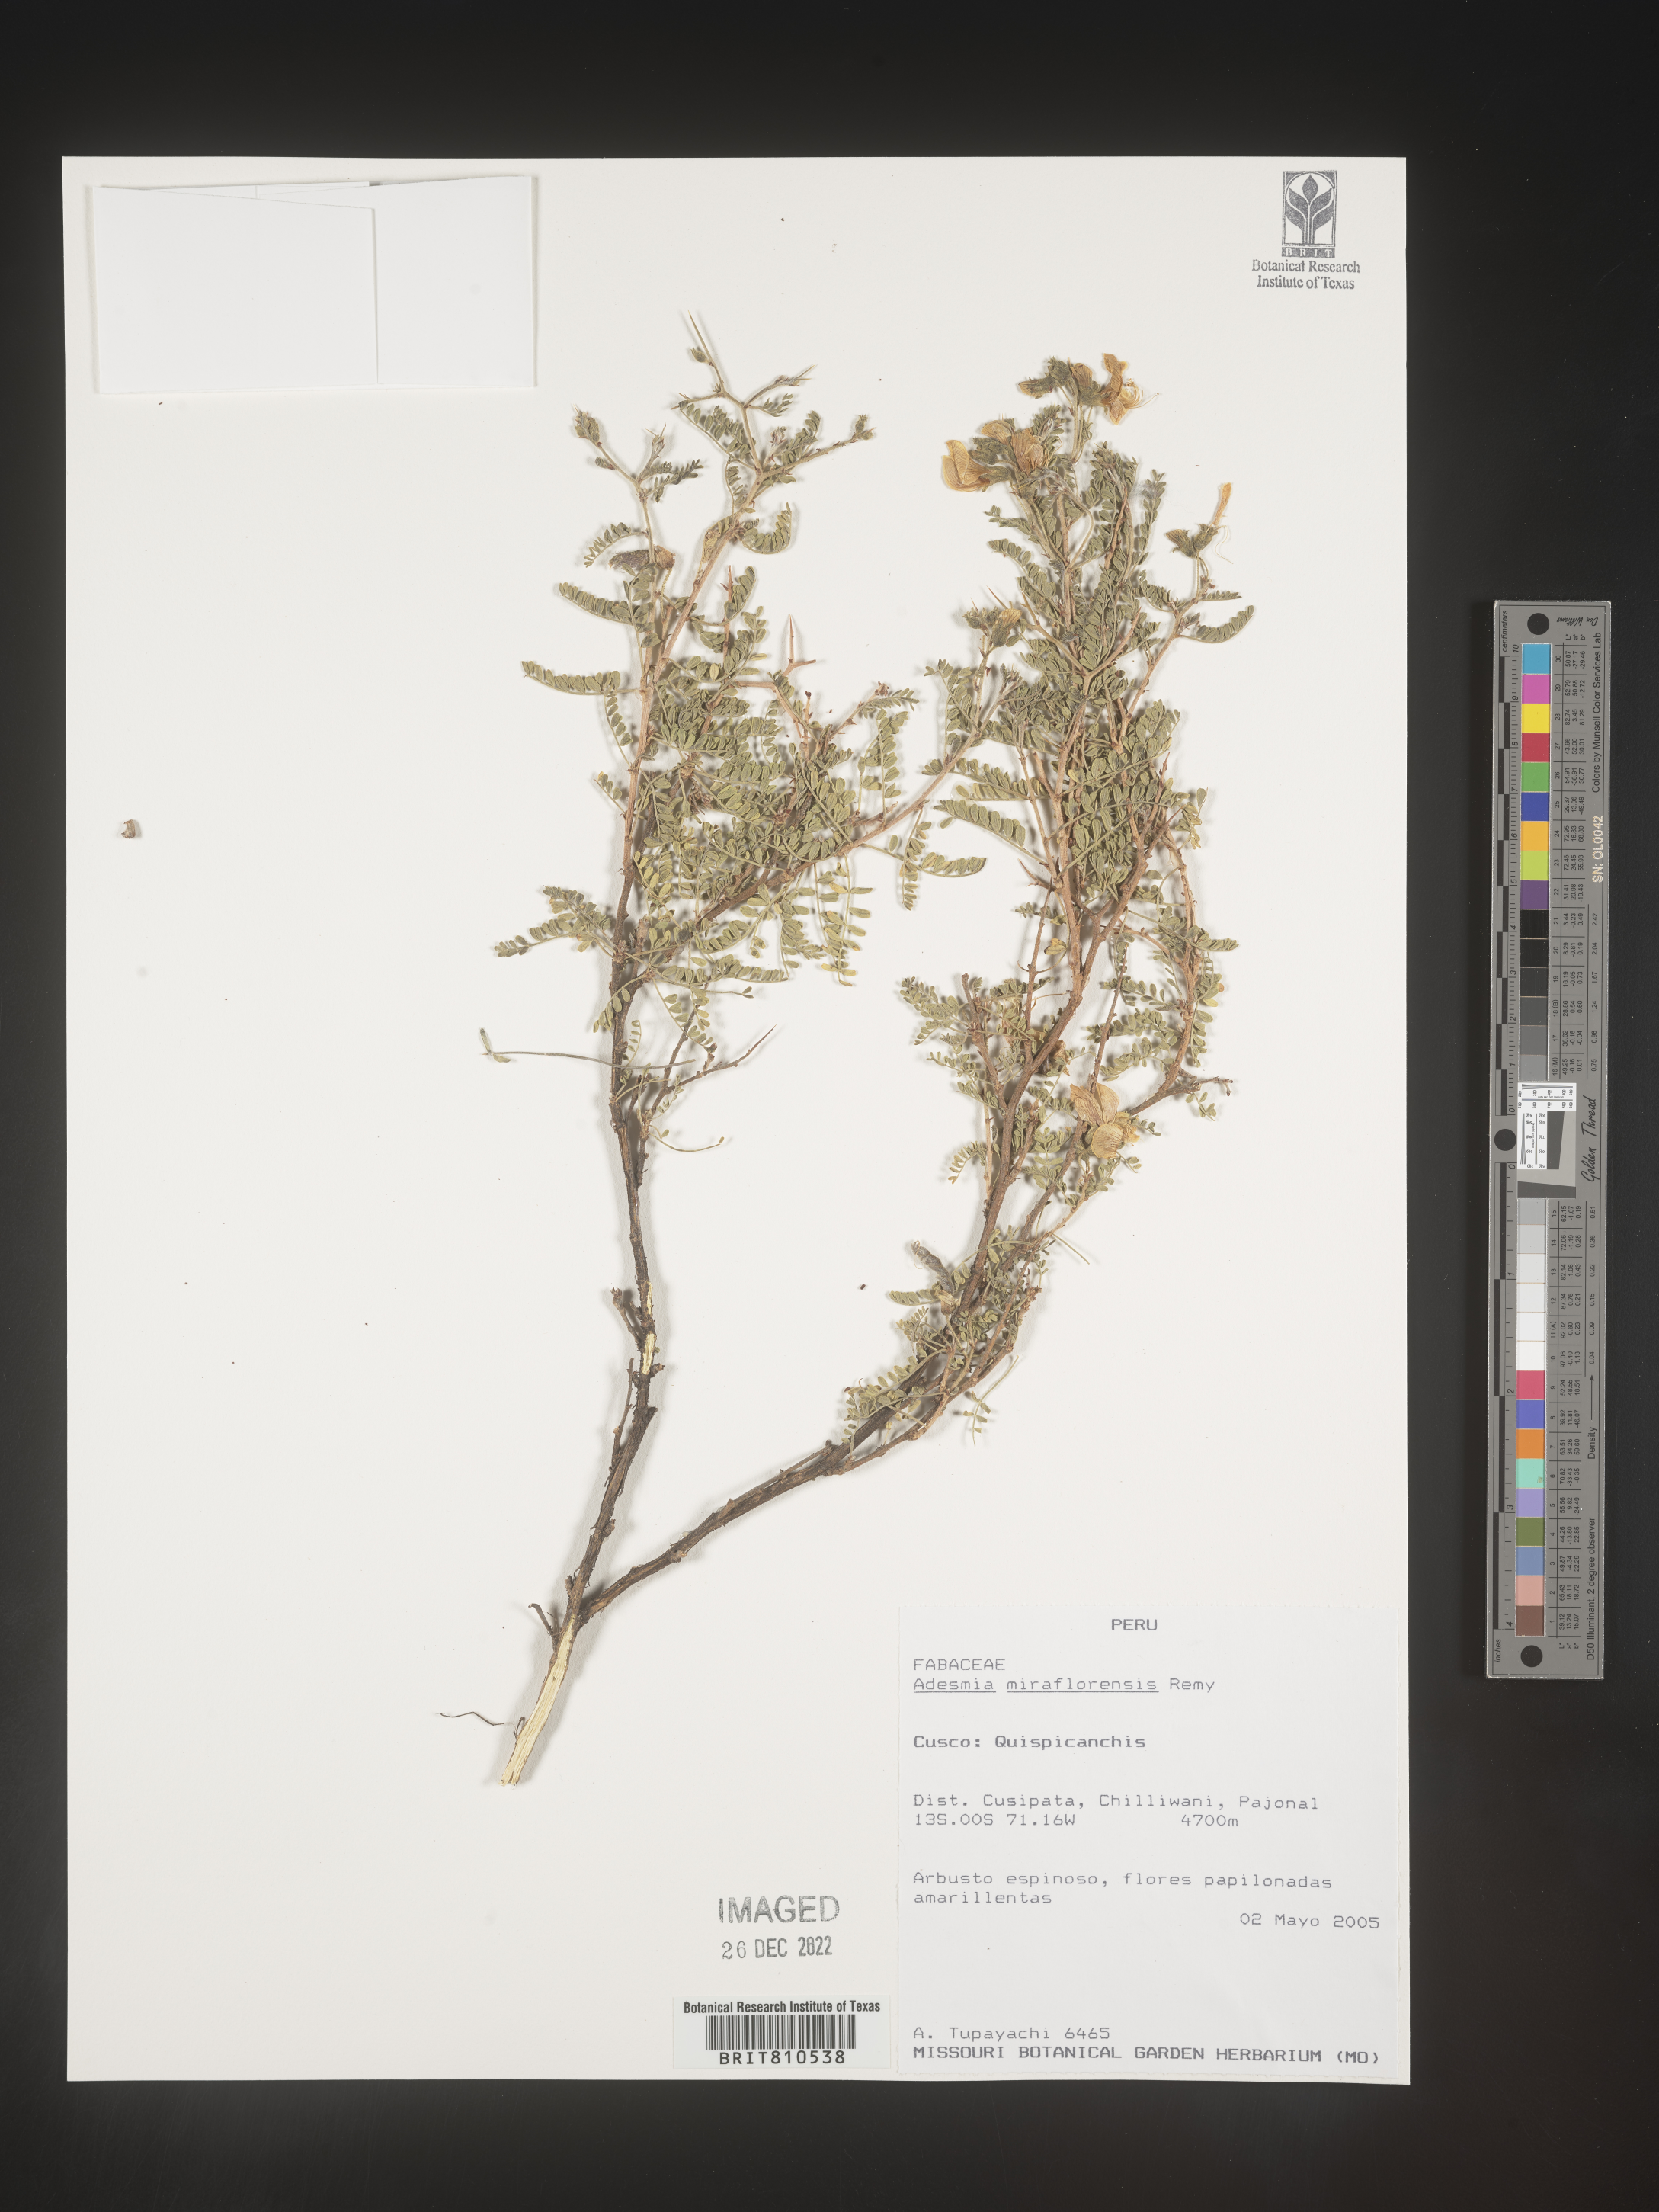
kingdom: Plantae
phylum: Tracheophyta
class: Magnoliopsida
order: Fabales
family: Fabaceae
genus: Adesmia
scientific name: Adesmia
